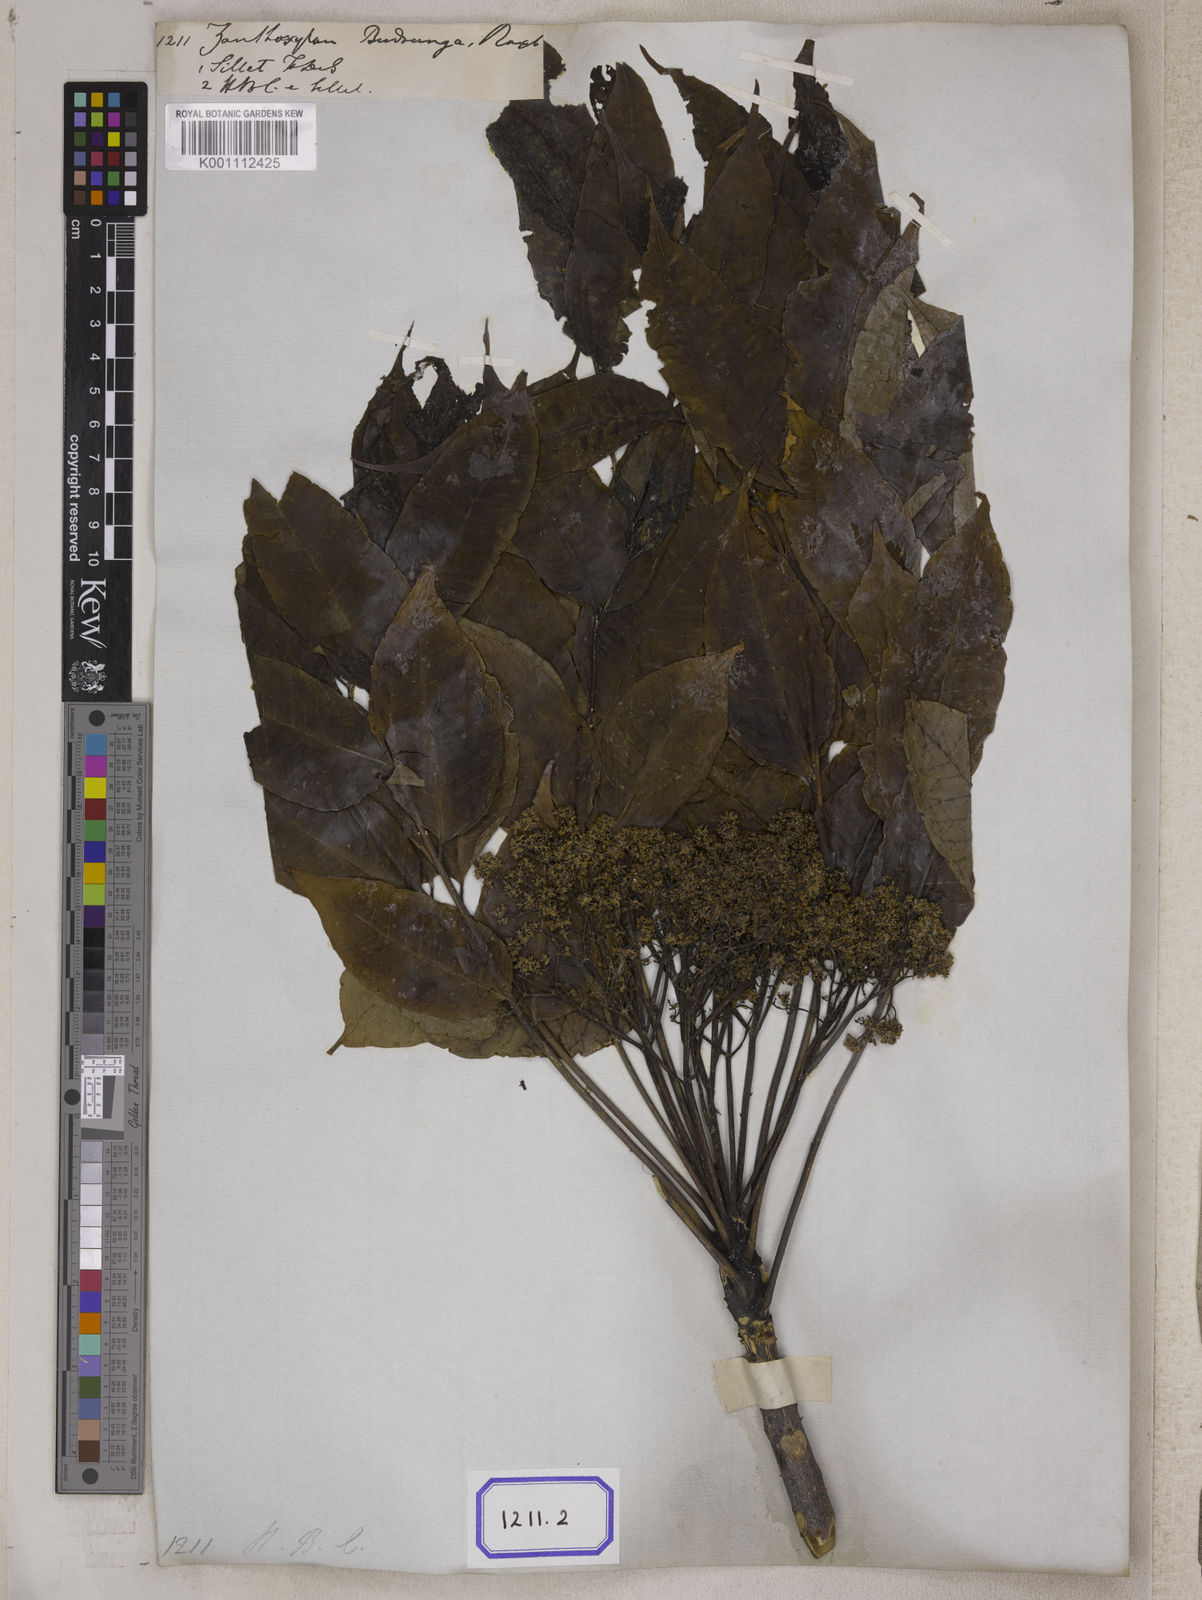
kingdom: Plantae
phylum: Tracheophyta
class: Magnoliopsida
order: Sapindales
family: Rutaceae
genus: Zanthoxylum
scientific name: Zanthoxylum rhetsa
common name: Indian ivy-rue
